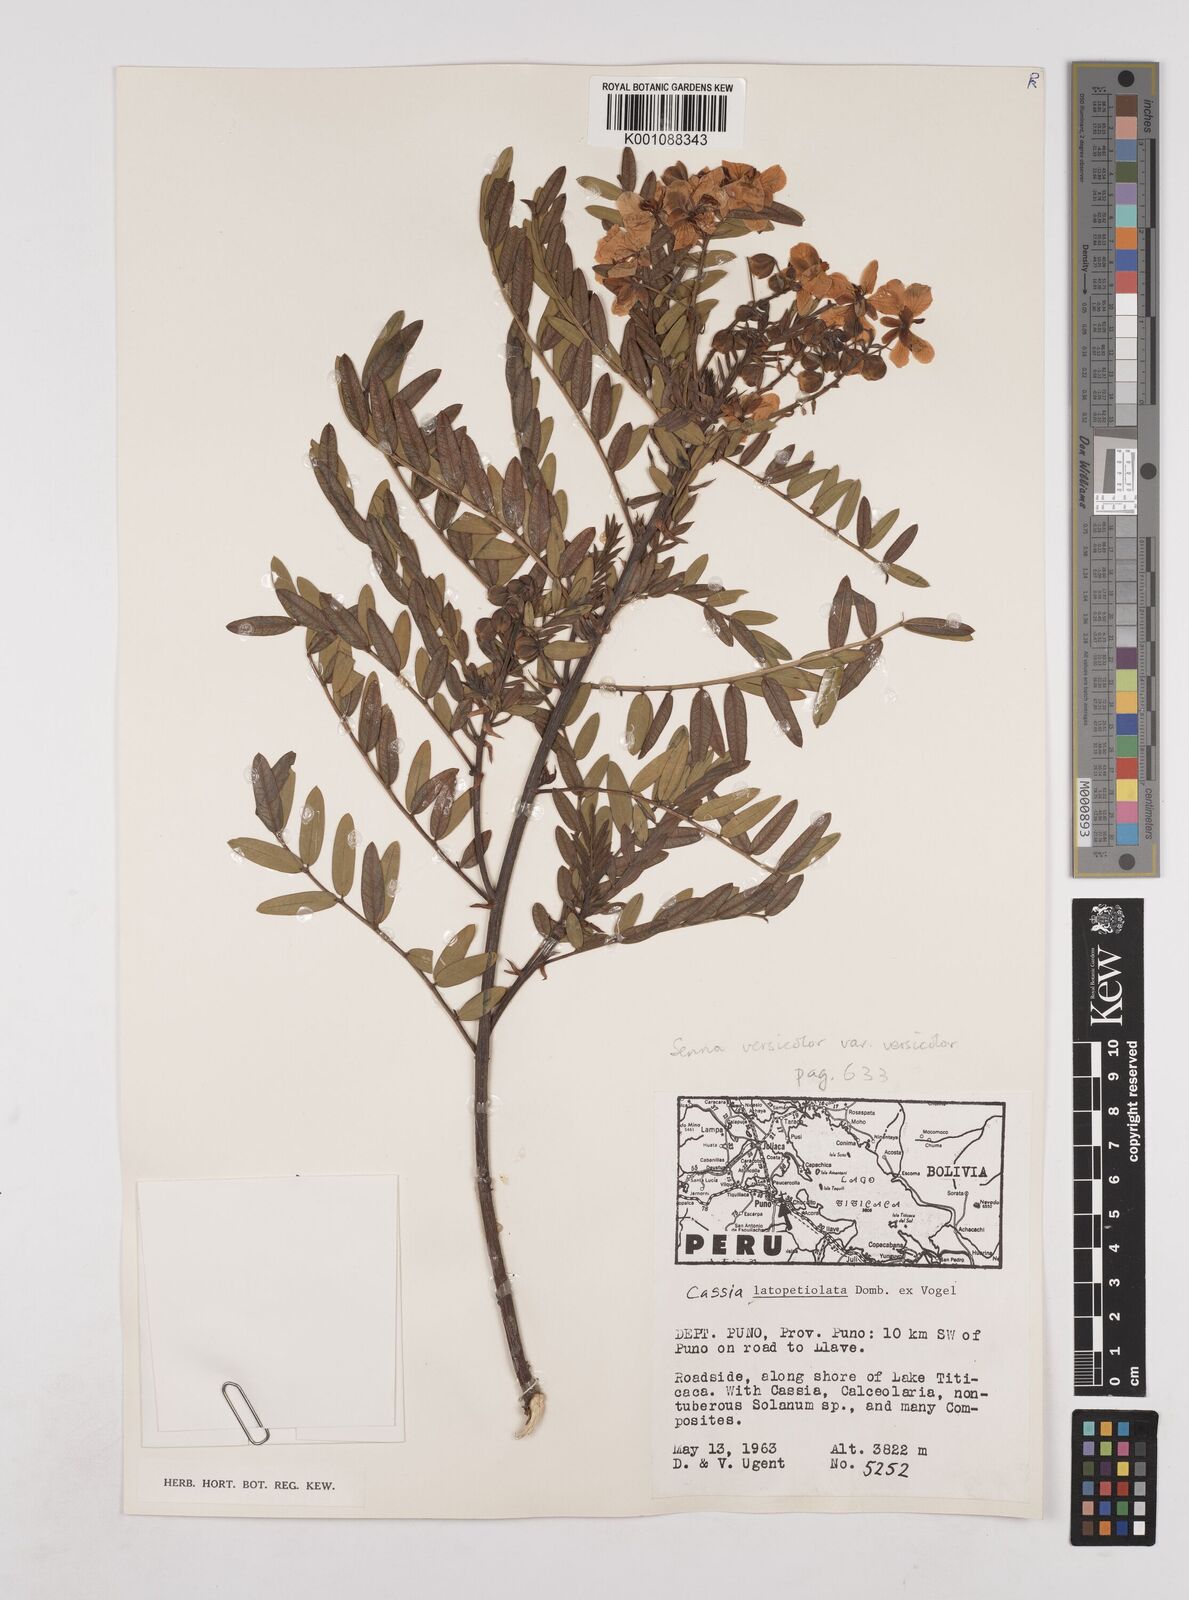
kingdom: Plantae
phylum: Tracheophyta
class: Magnoliopsida
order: Fabales
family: Fabaceae
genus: Senna
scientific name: Senna versicolor
